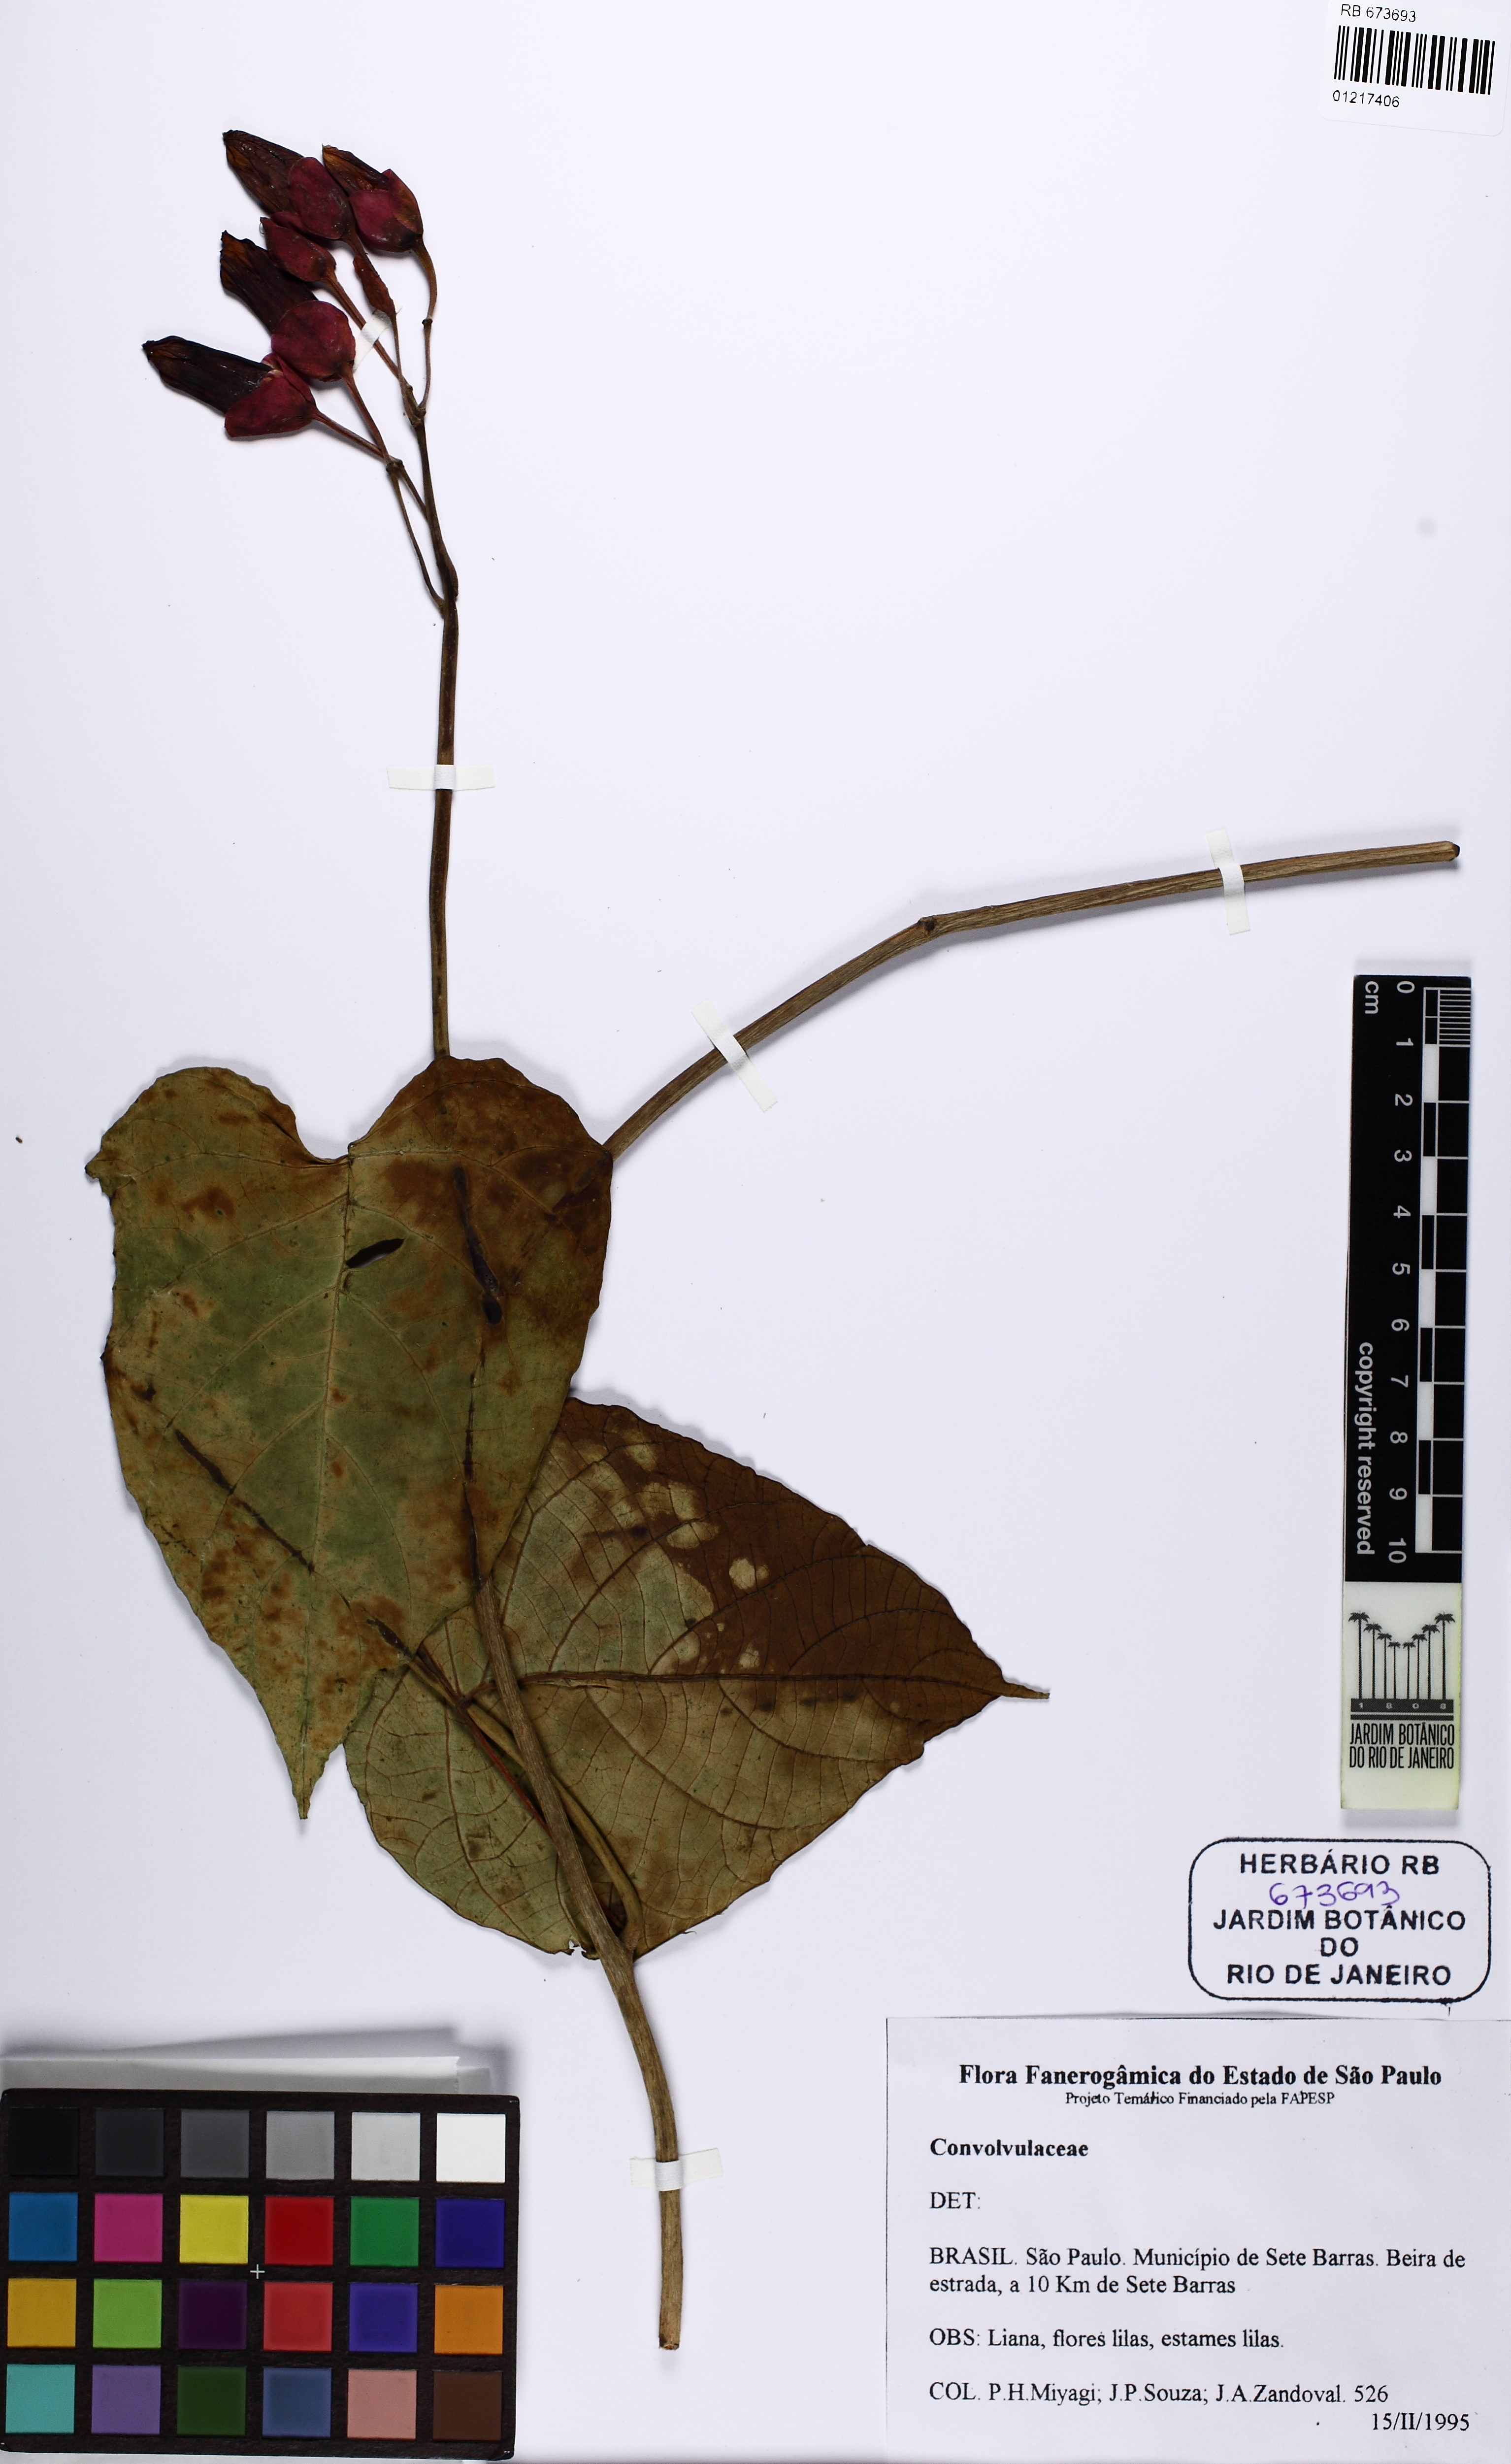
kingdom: Plantae
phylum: Tracheophyta
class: Magnoliopsida
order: Solanales
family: Convolvulaceae
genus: Ipomoea
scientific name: Ipomoea philomega
